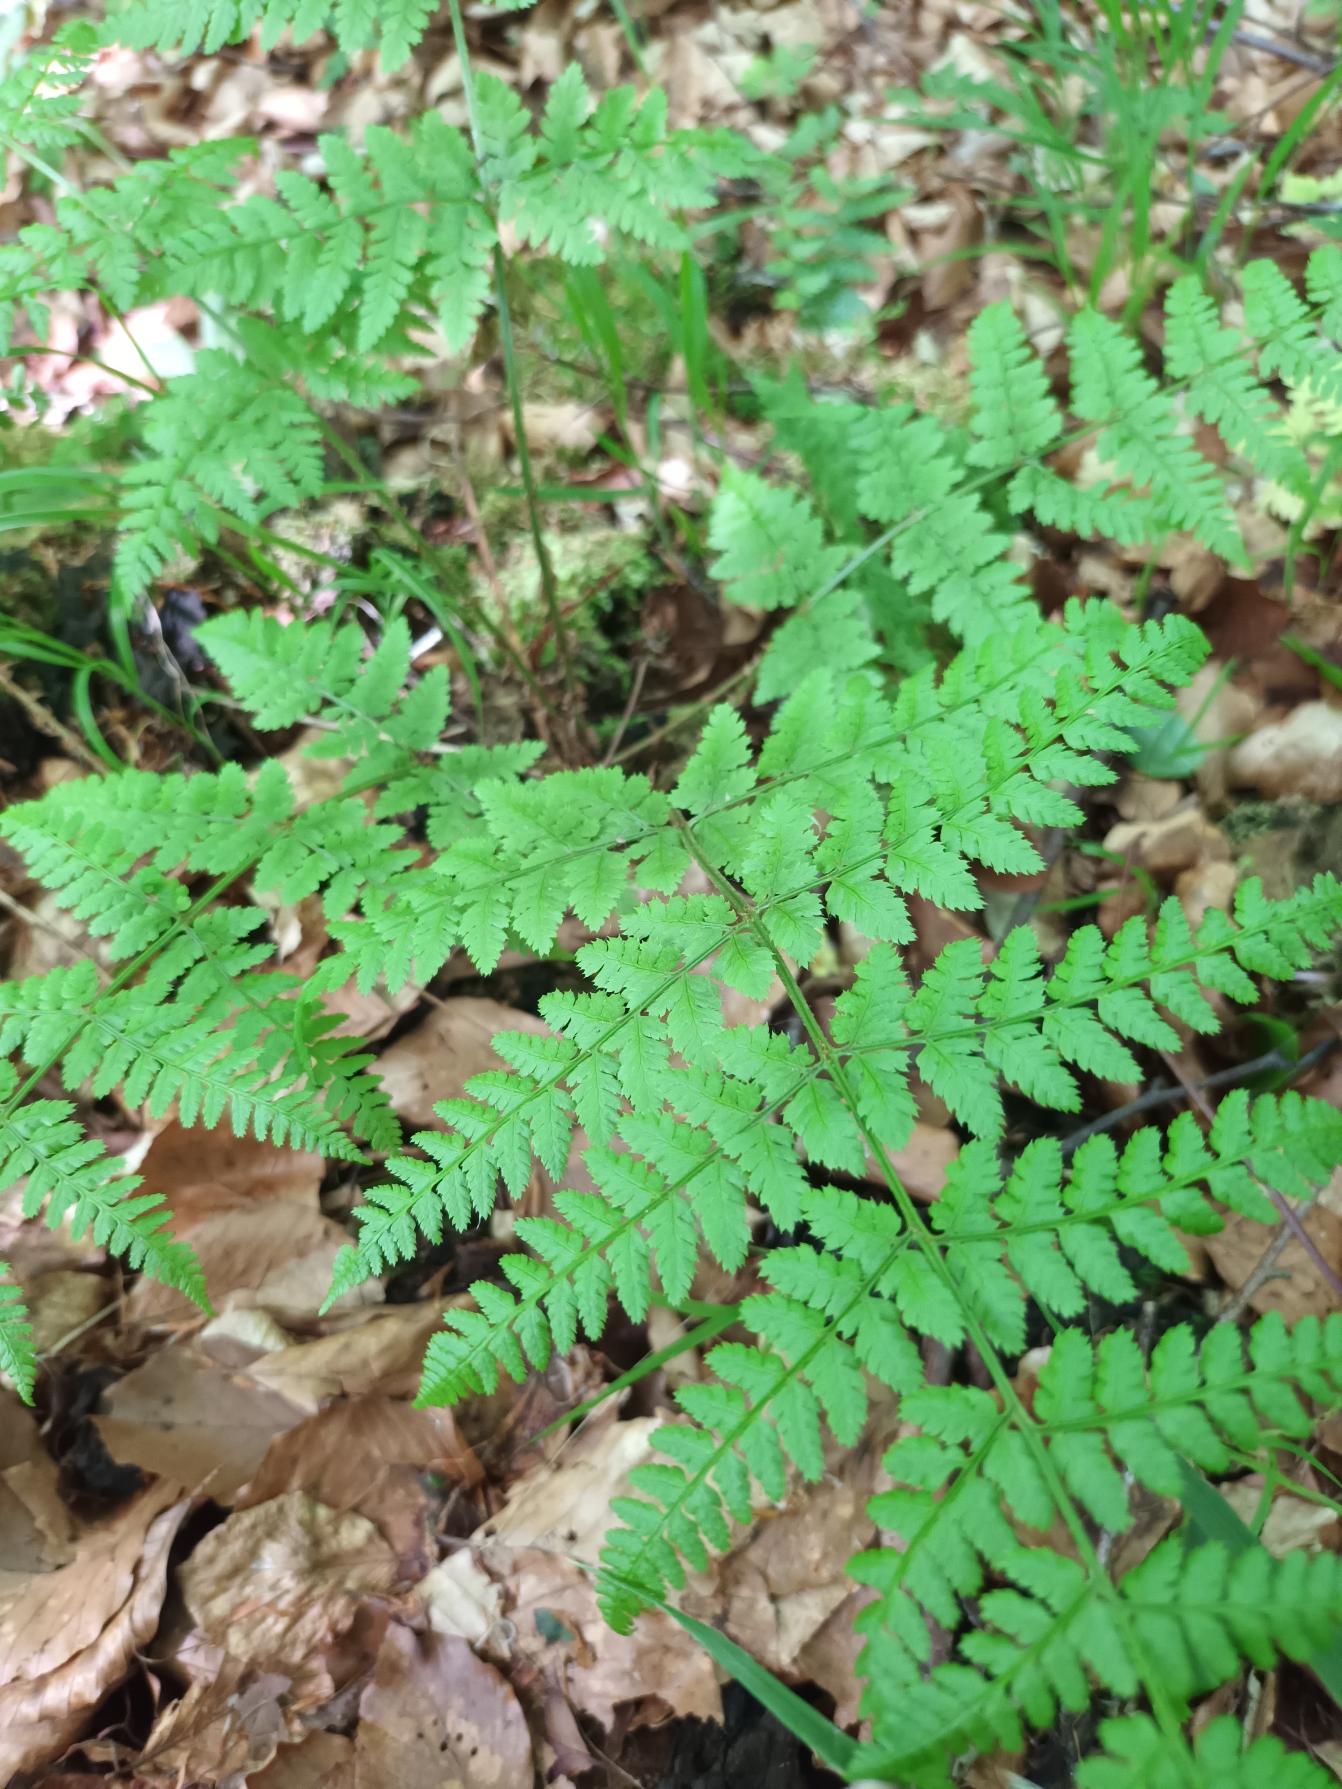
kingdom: Plantae
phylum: Tracheophyta
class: Polypodiopsida
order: Polypodiales
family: Dryopteridaceae
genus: Dryopteris
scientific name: Dryopteris carthusiana
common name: Smalbladet mangeløv
